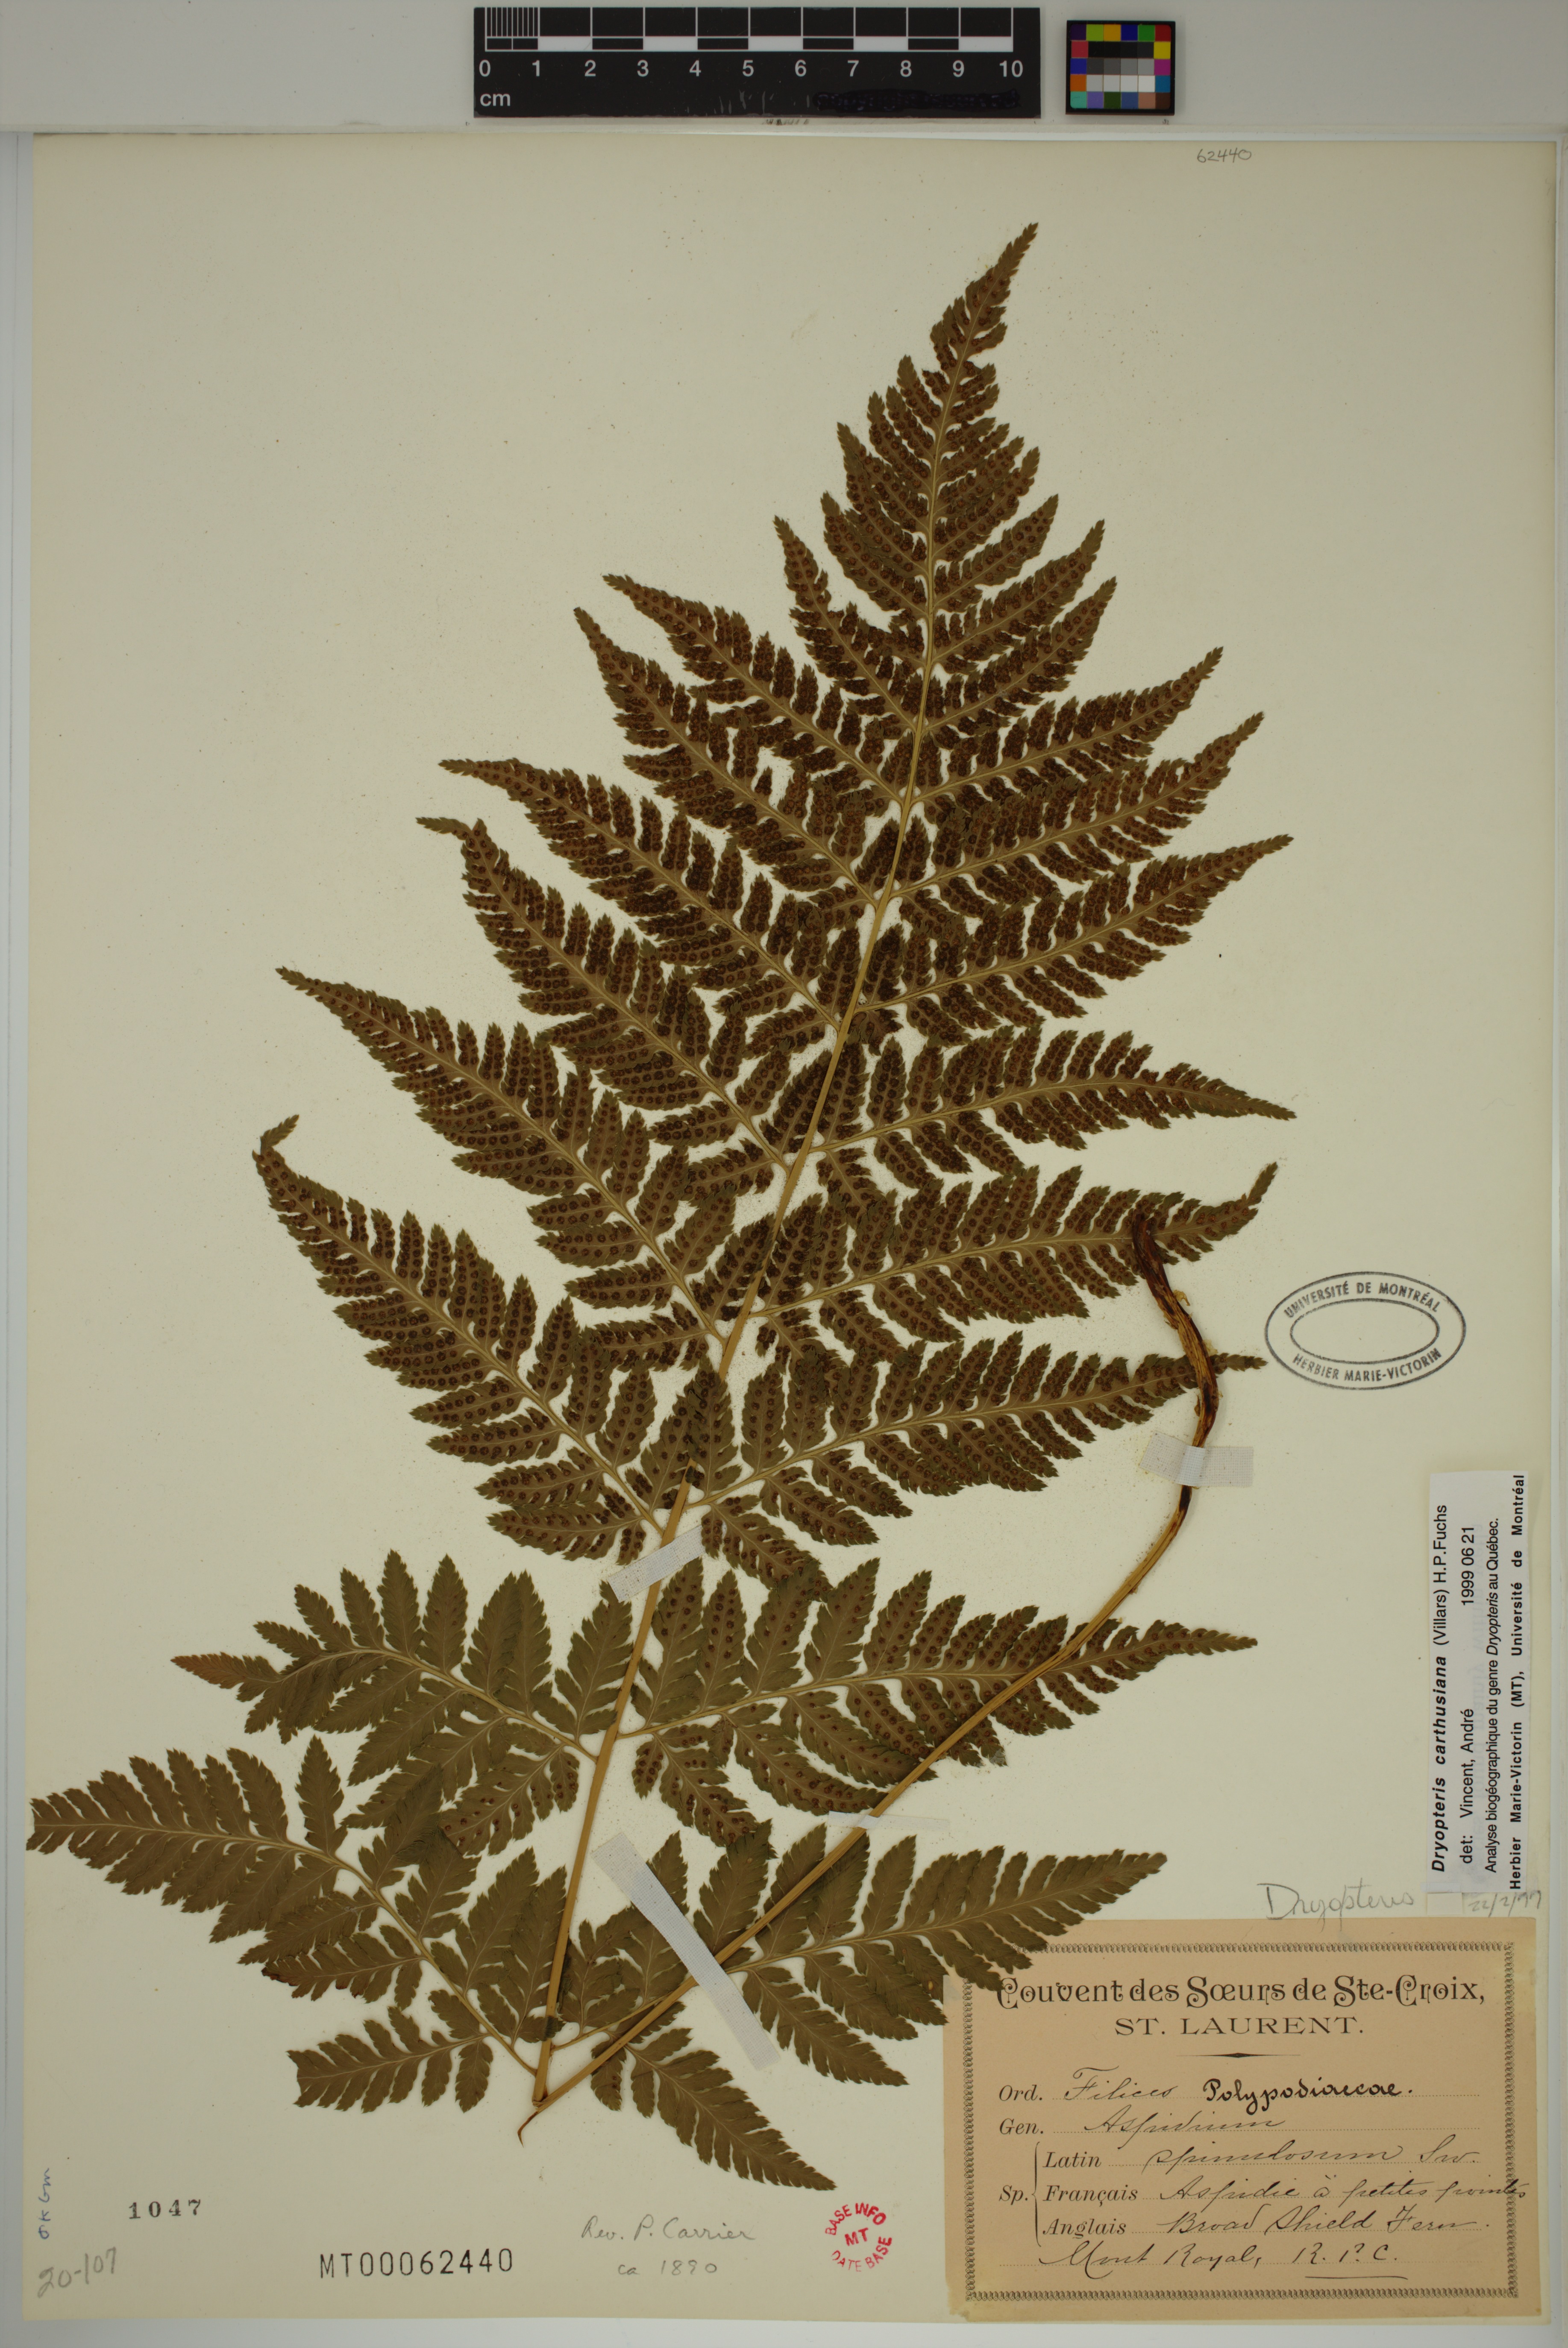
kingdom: Plantae
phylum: Tracheophyta
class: Polypodiopsida
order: Polypodiales
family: Dryopteridaceae
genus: Dryopteris
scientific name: Dryopteris carthusiana
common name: Narrow buckler-fern
